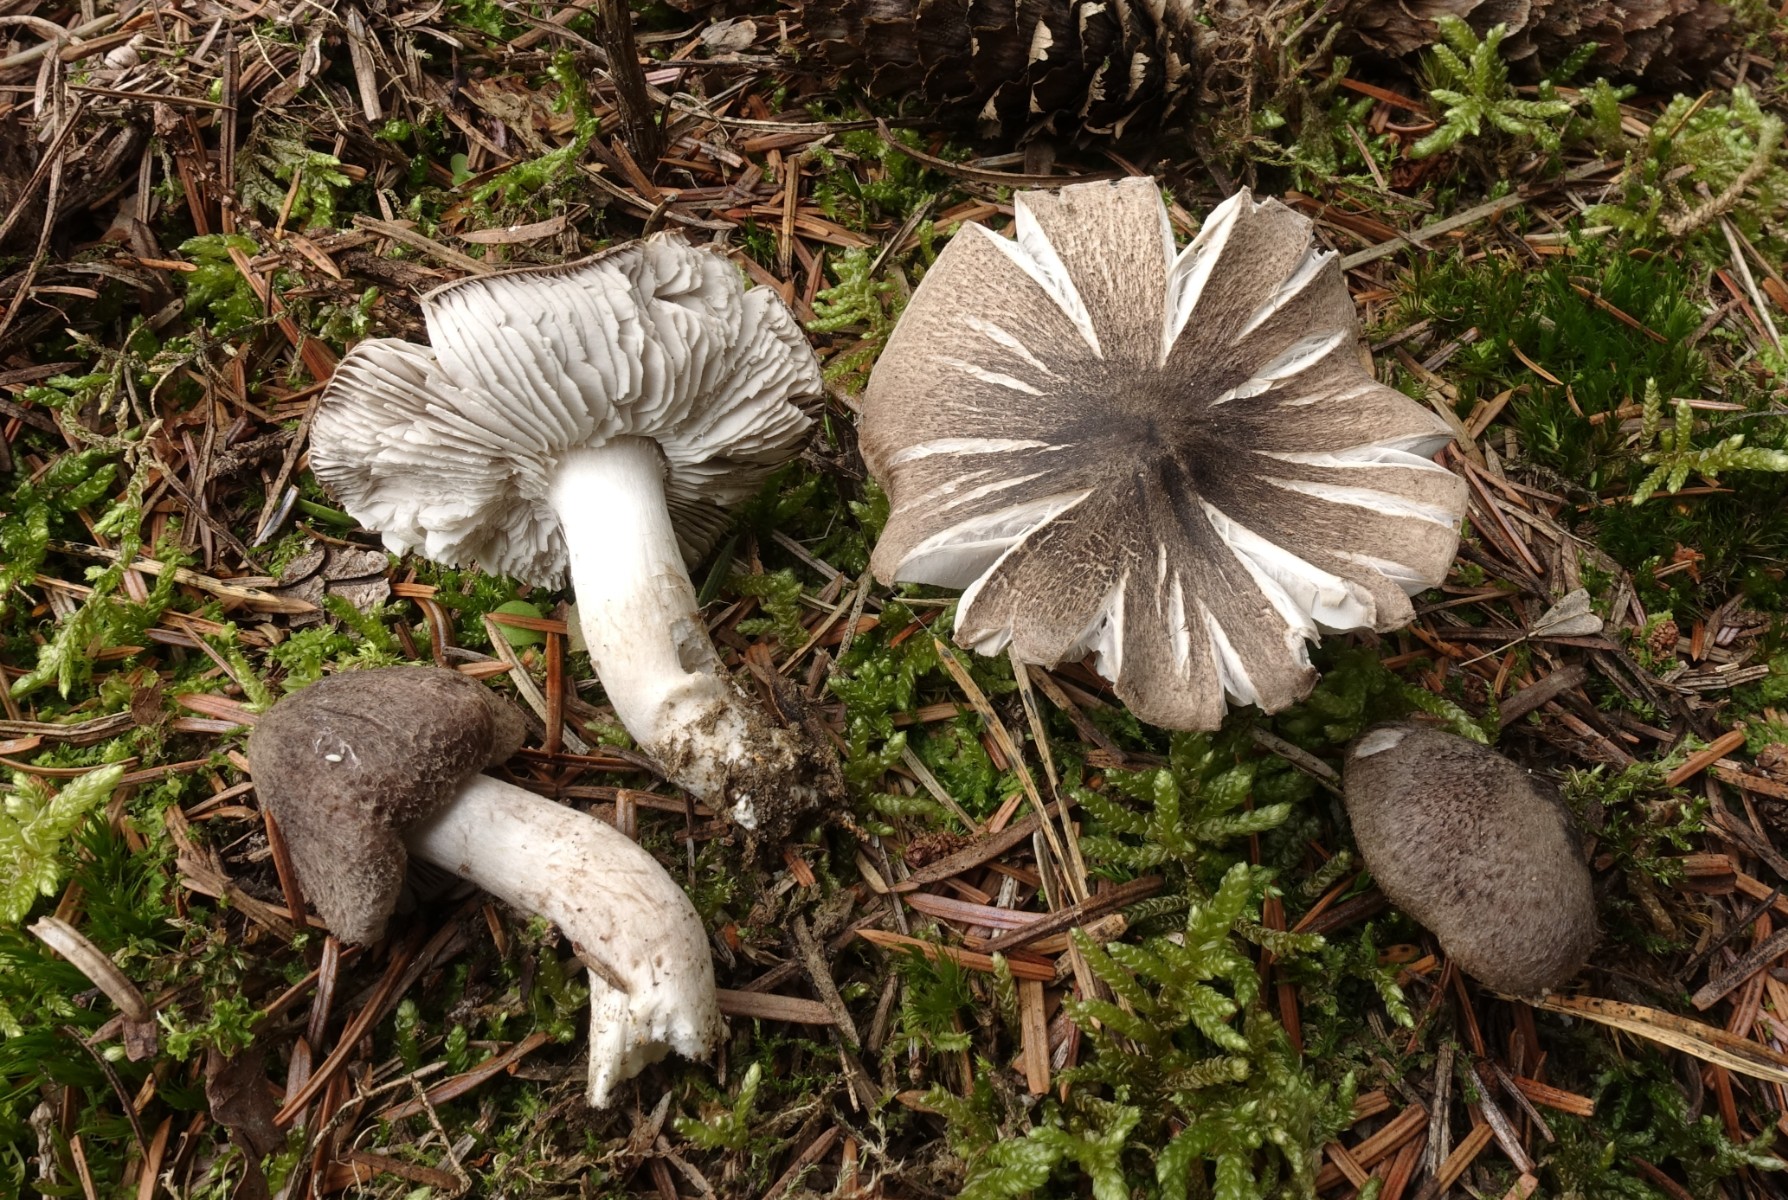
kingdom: Fungi
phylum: Basidiomycota
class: Agaricomycetes
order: Agaricales
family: Tricholomataceae
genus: Tricholoma
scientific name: Tricholoma terreum
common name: jordfarvet ridderhat
